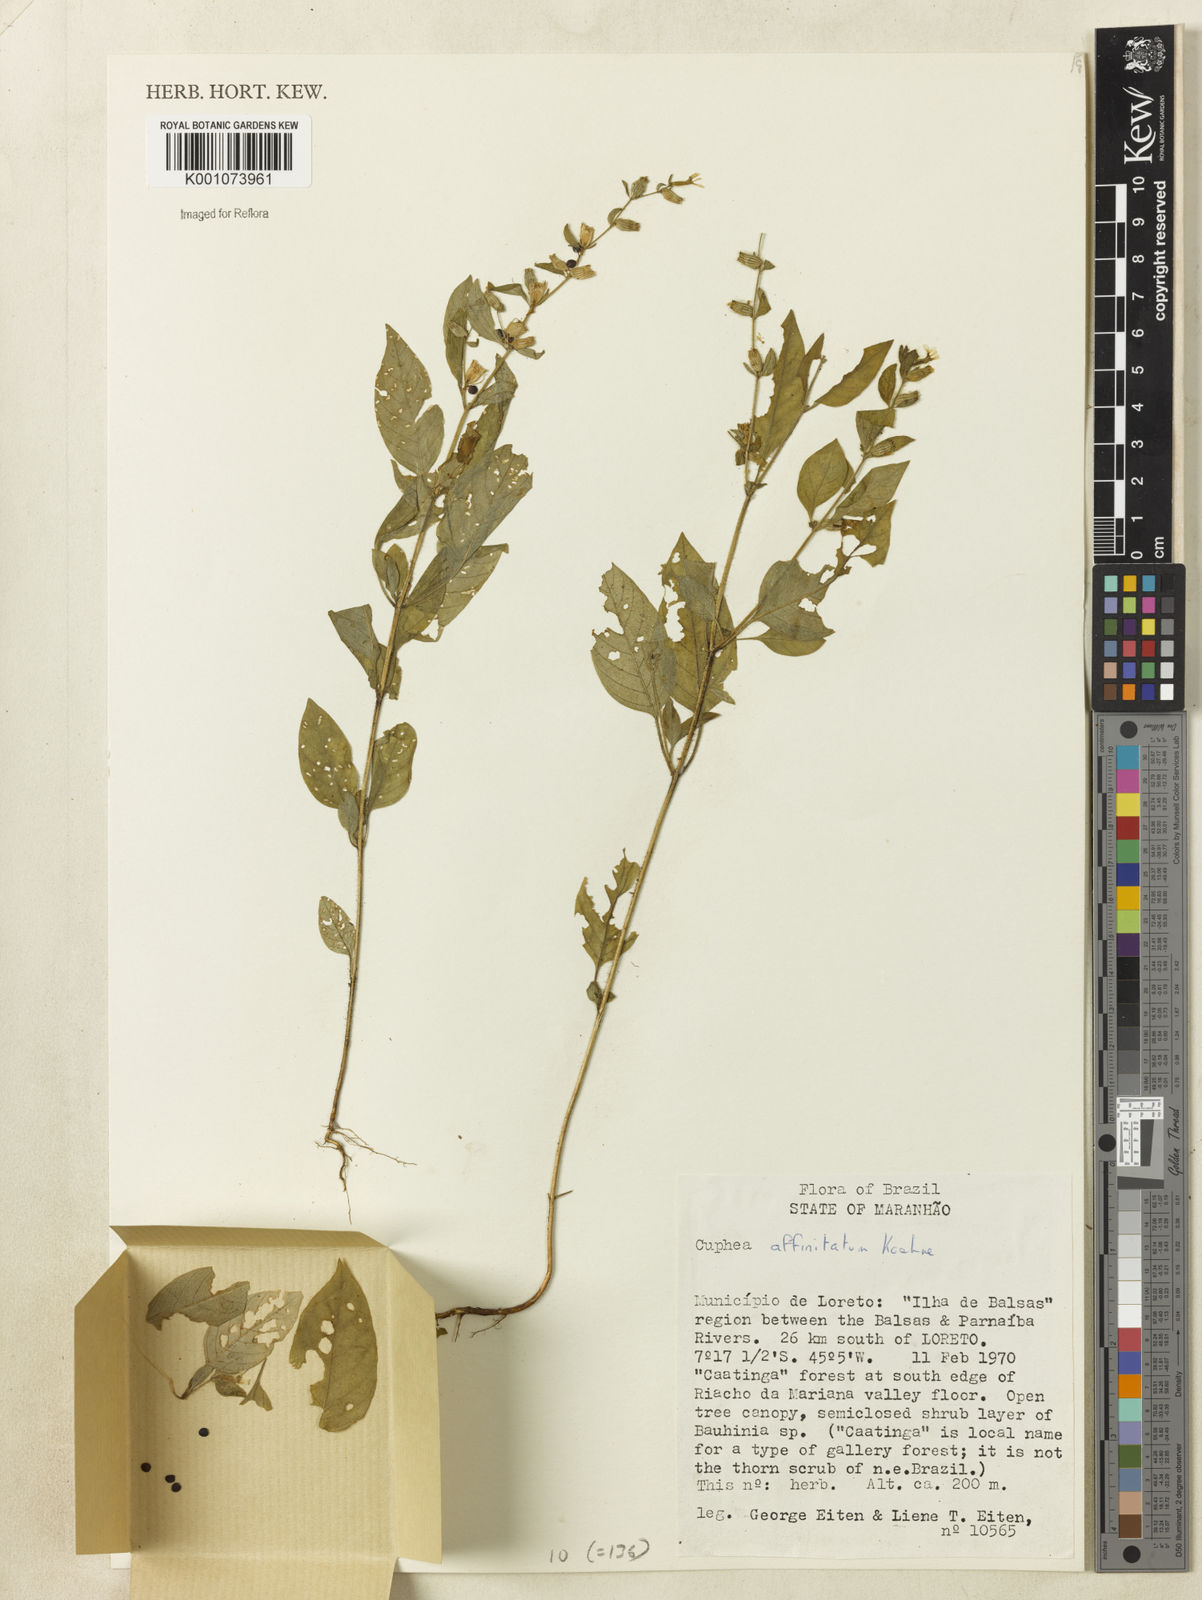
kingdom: Plantae
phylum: Tracheophyta
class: Magnoliopsida
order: Myrtales
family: Lythraceae
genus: Cuphea
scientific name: Cuphea
